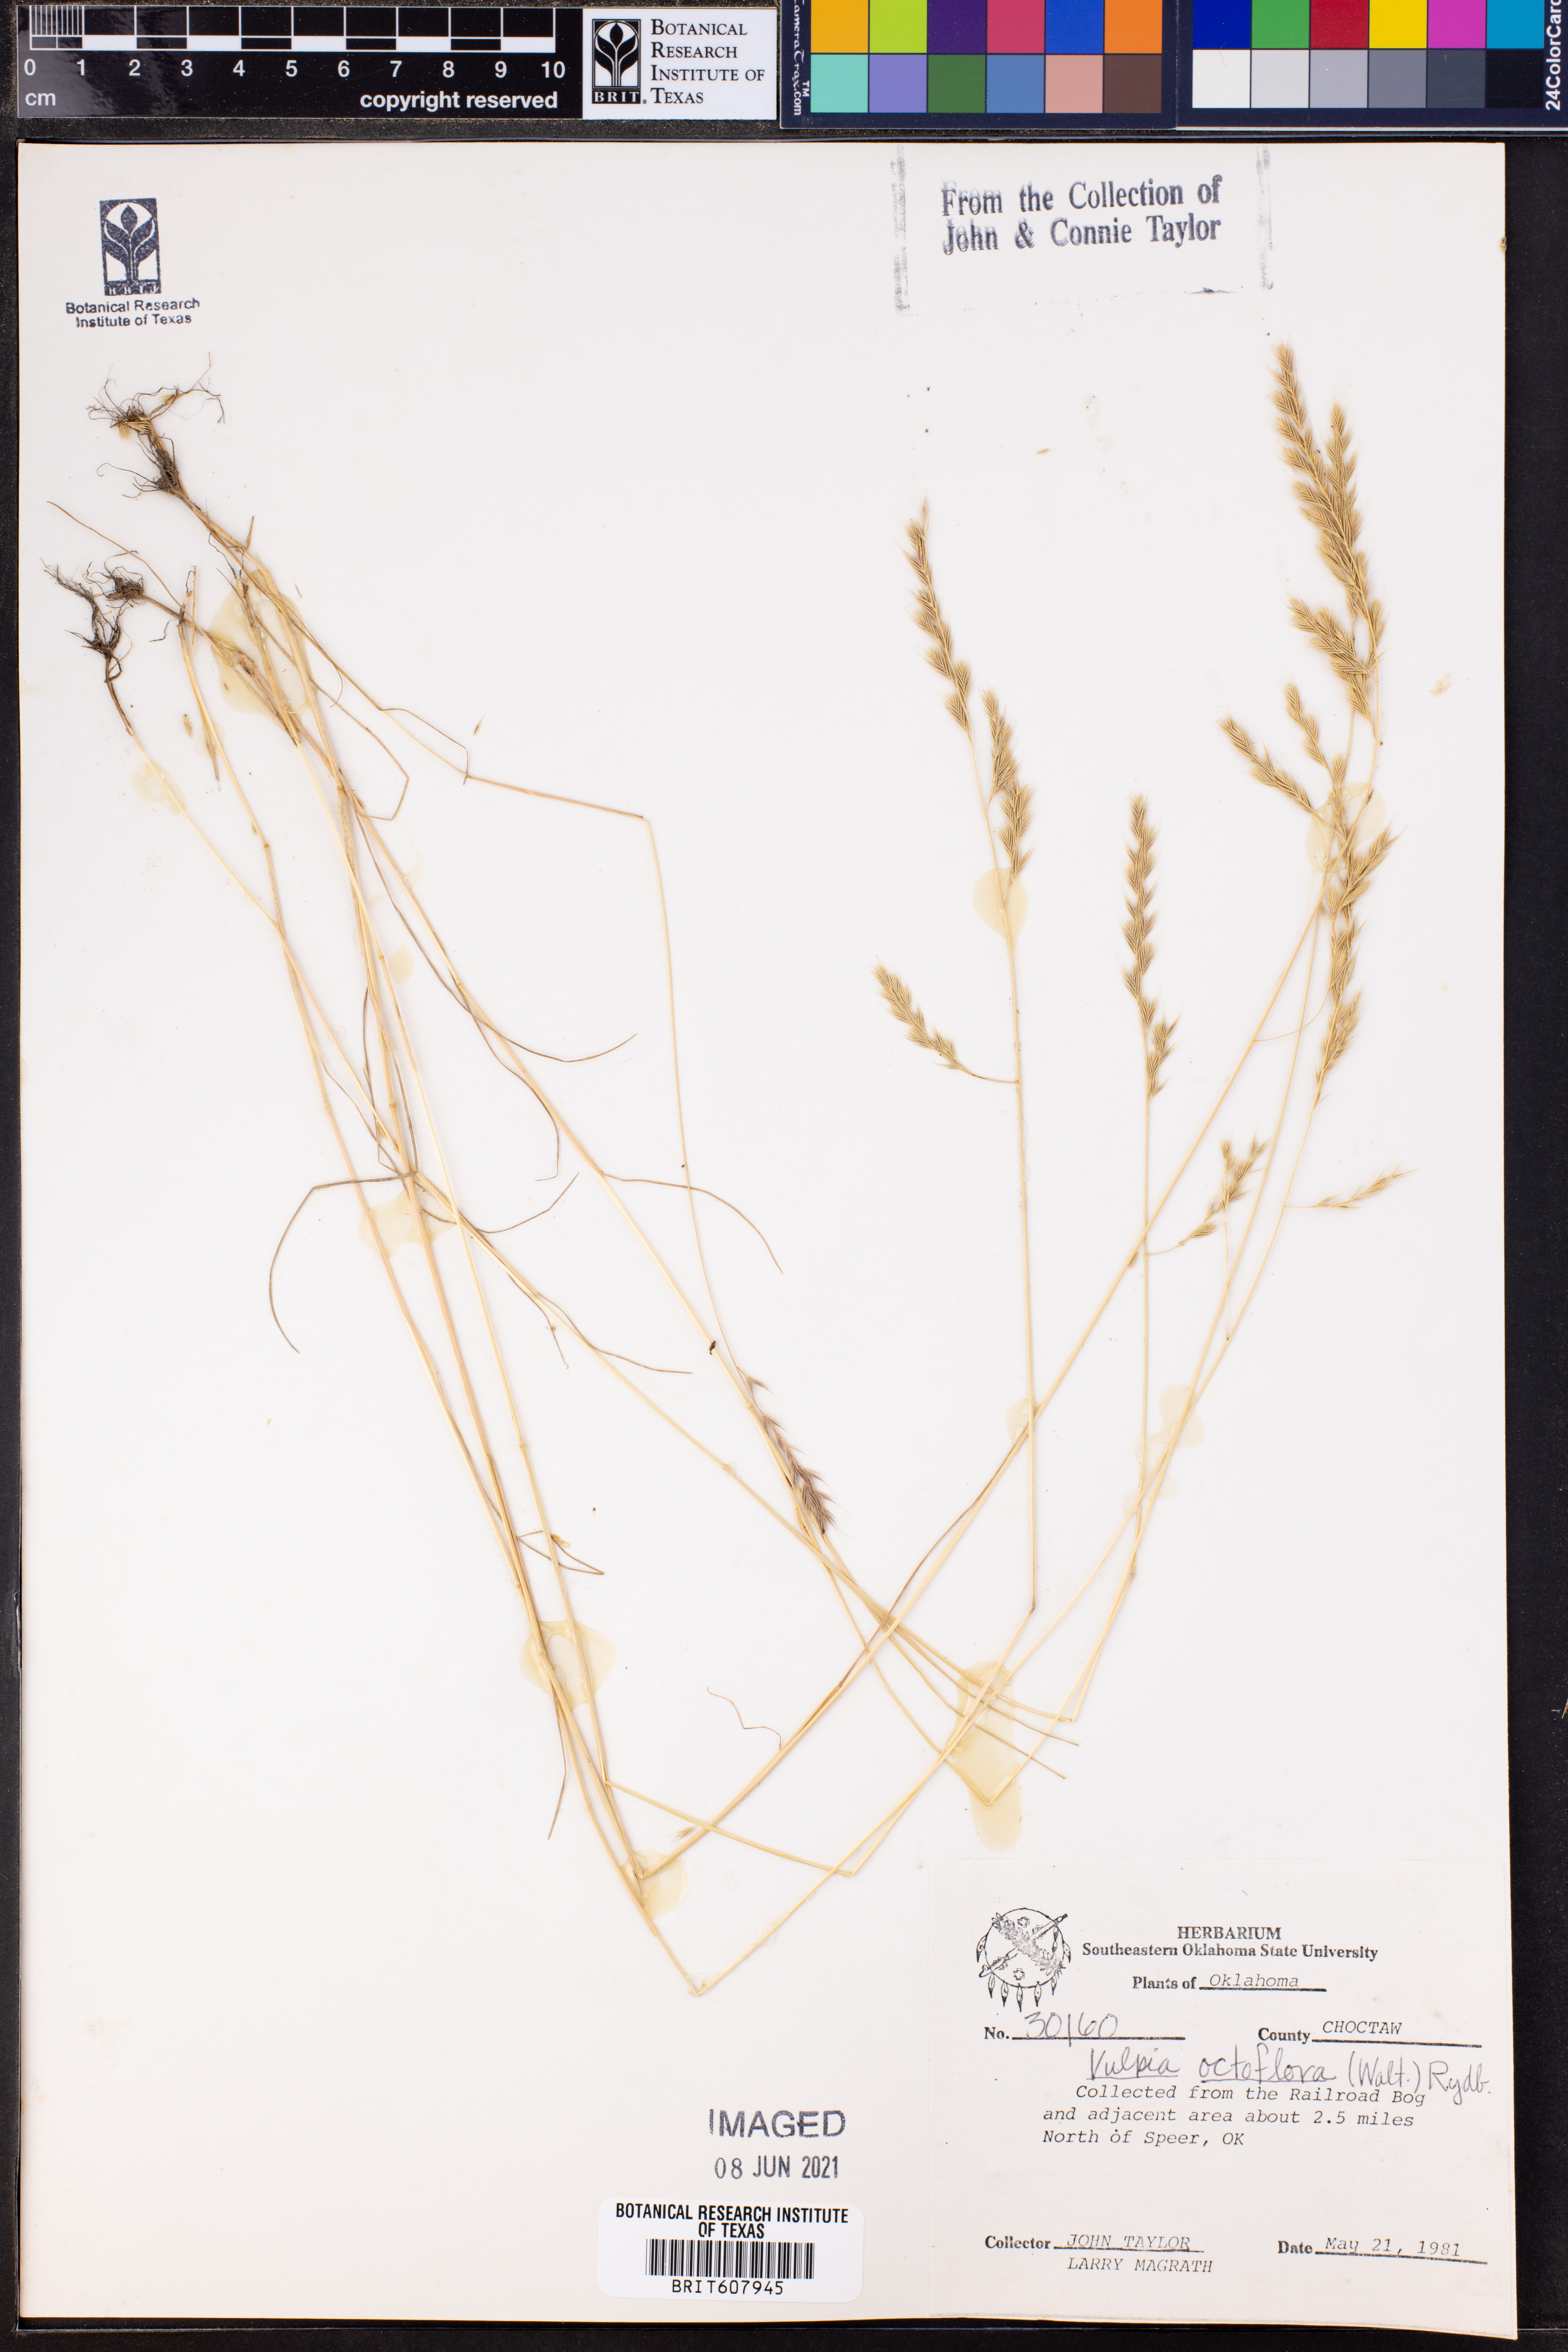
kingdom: Plantae
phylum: Tracheophyta
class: Liliopsida
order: Poales
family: Poaceae
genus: Festuca
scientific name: Festuca octoflora
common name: Sixweeks grass
